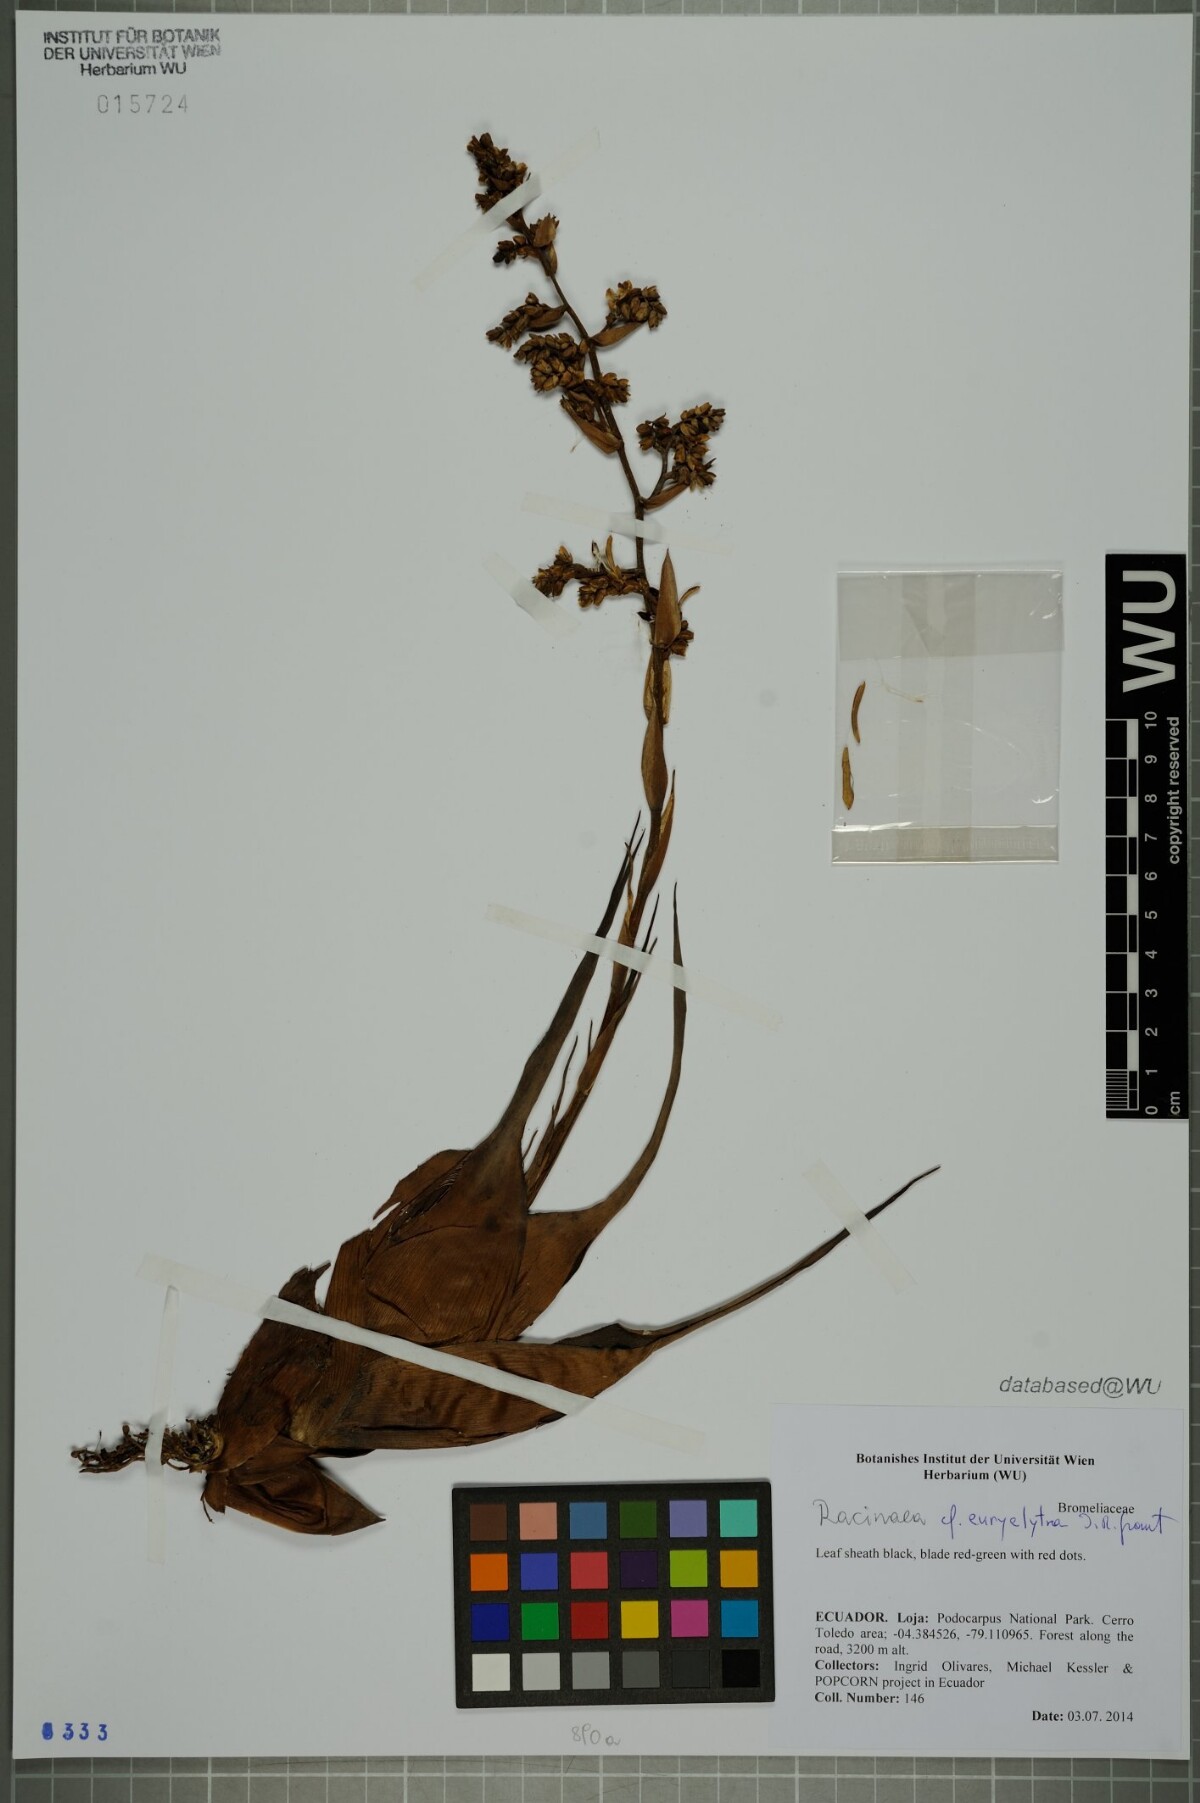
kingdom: Plantae
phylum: Tracheophyta
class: Liliopsida
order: Poales
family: Bromeliaceae
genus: Racinaea
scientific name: Racinaea euryelytra
